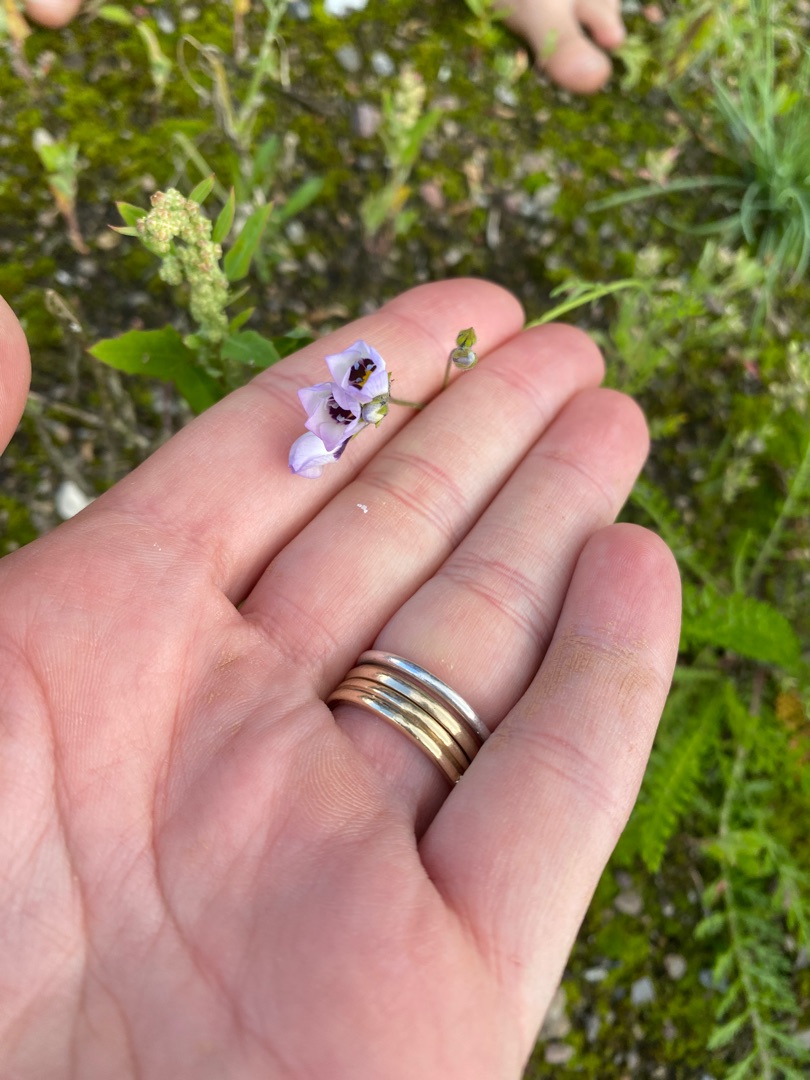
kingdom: Plantae
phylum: Tracheophyta
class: Magnoliopsida
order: Ericales
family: Polemoniaceae
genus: Gilia
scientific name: Gilia tricolor
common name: Trefarvet blåhoved
